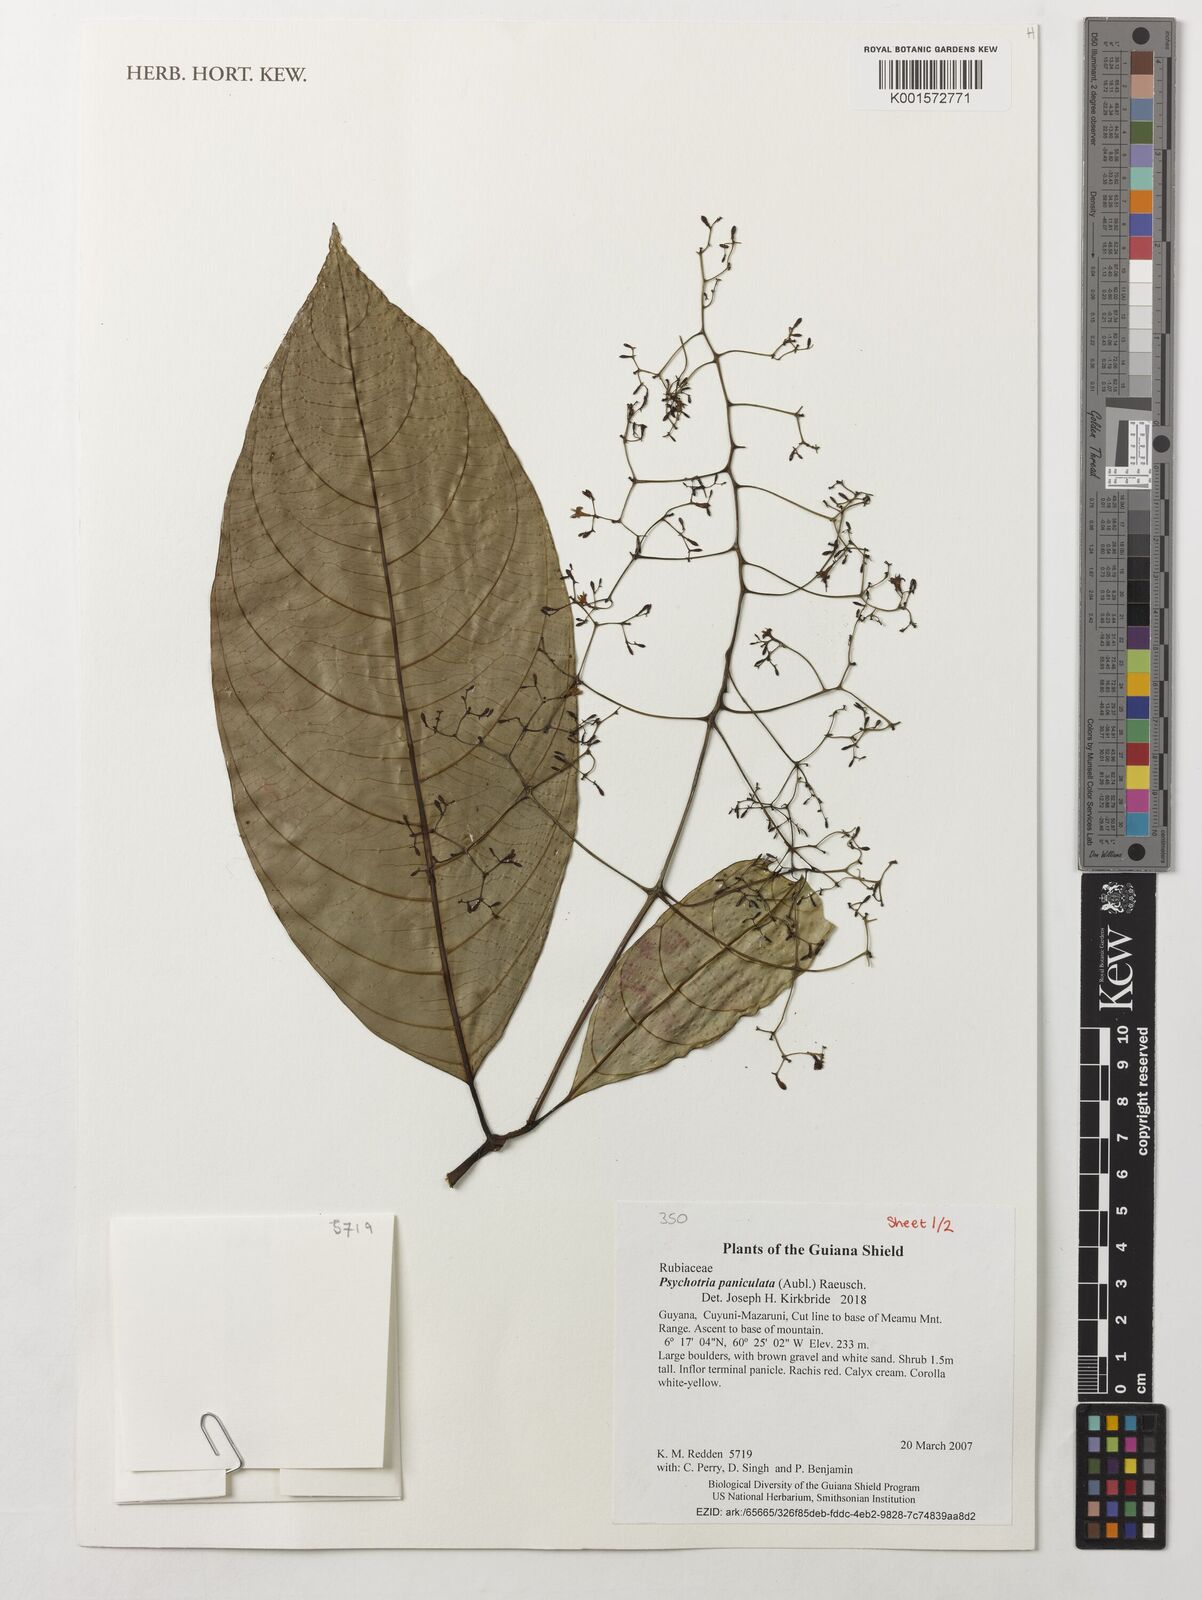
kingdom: Plantae
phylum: Tracheophyta
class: Magnoliopsida
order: Gentianales
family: Rubiaceae
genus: Palicourea
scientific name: Palicourea paniculata
